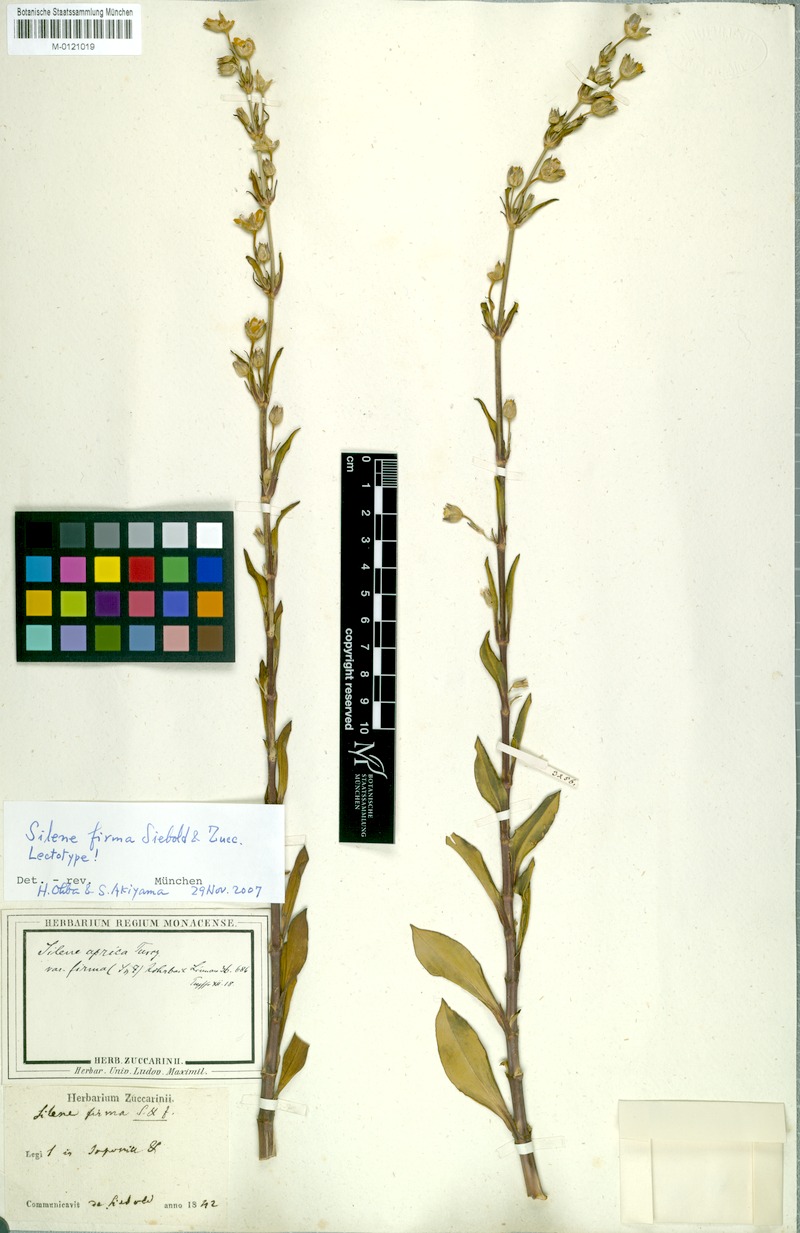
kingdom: Plantae
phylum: Tracheophyta
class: Magnoliopsida
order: Caryophyllales
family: Caryophyllaceae
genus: Silene
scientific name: Silene firma
